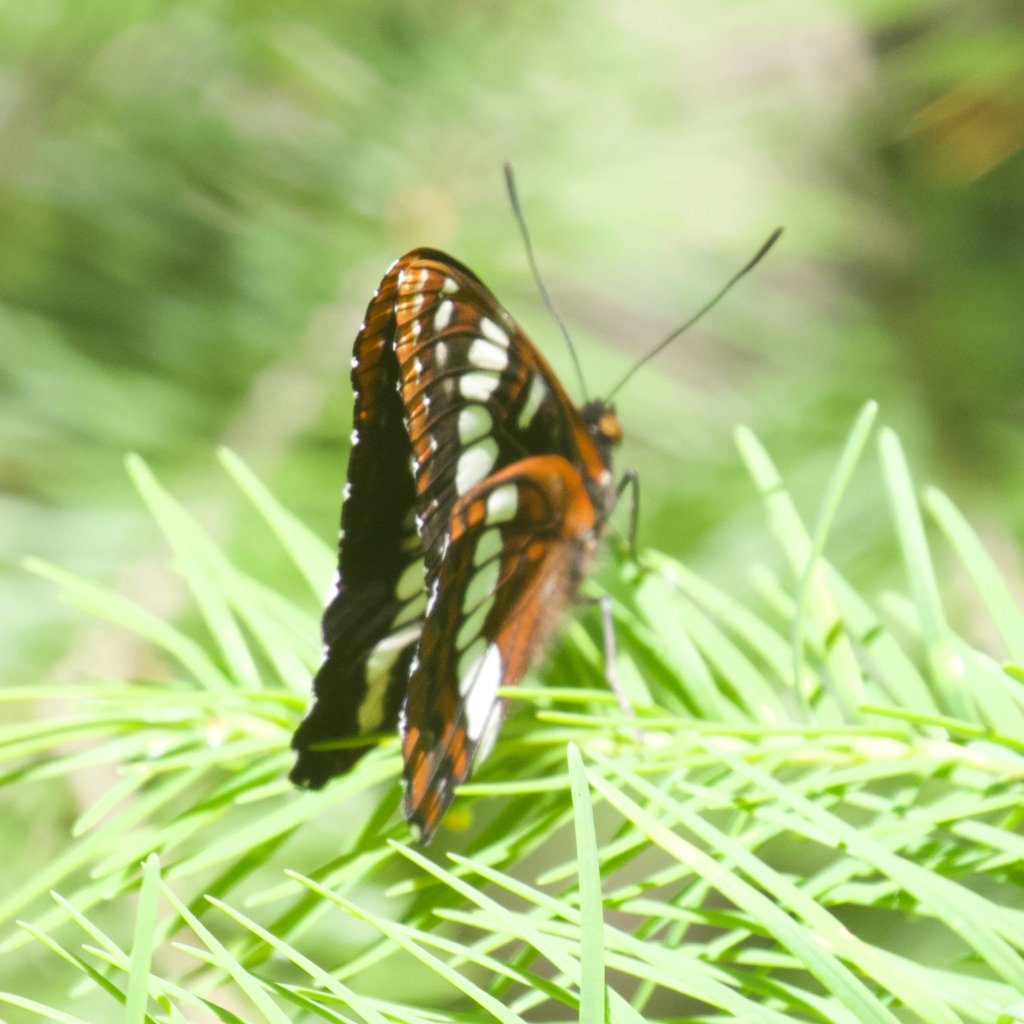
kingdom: Animalia
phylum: Arthropoda
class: Insecta
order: Lepidoptera
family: Nymphalidae
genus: Limenitis
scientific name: Limenitis lorquini
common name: Lorquin's Admiral
